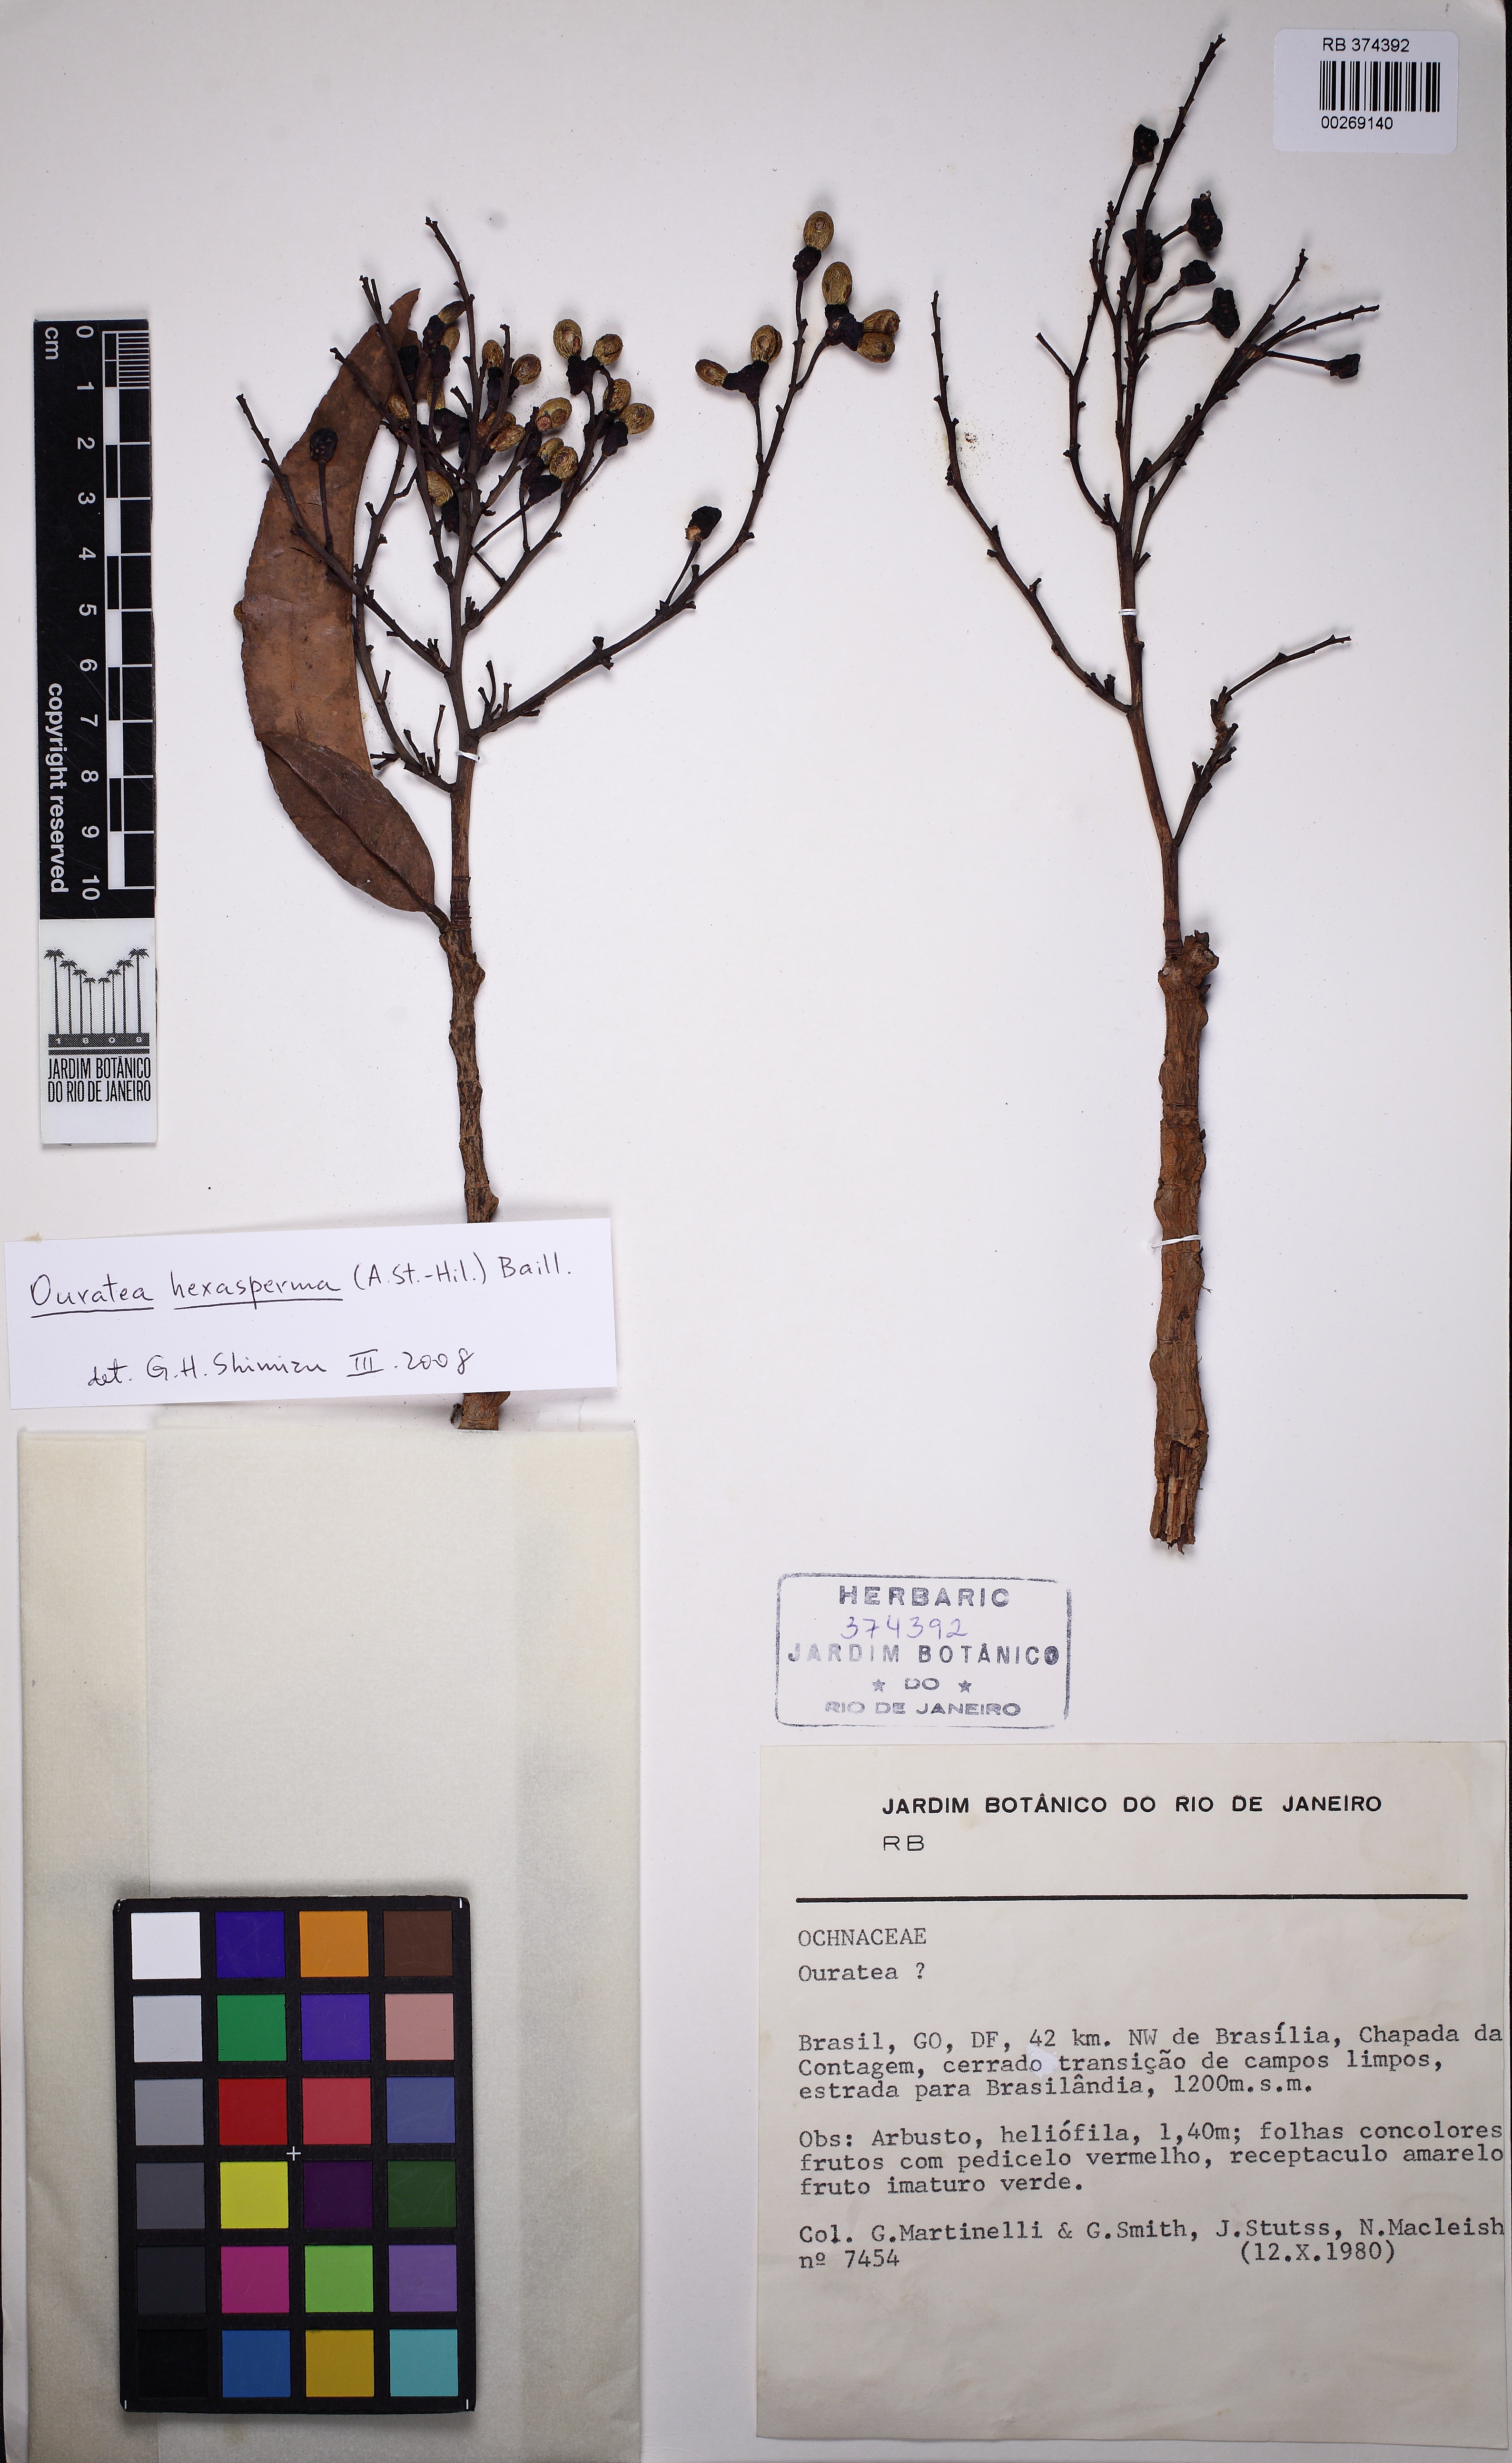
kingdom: Plantae
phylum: Tracheophyta
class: Magnoliopsida
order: Malpighiales
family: Ochnaceae
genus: Ouratea
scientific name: Ouratea hexasperma
